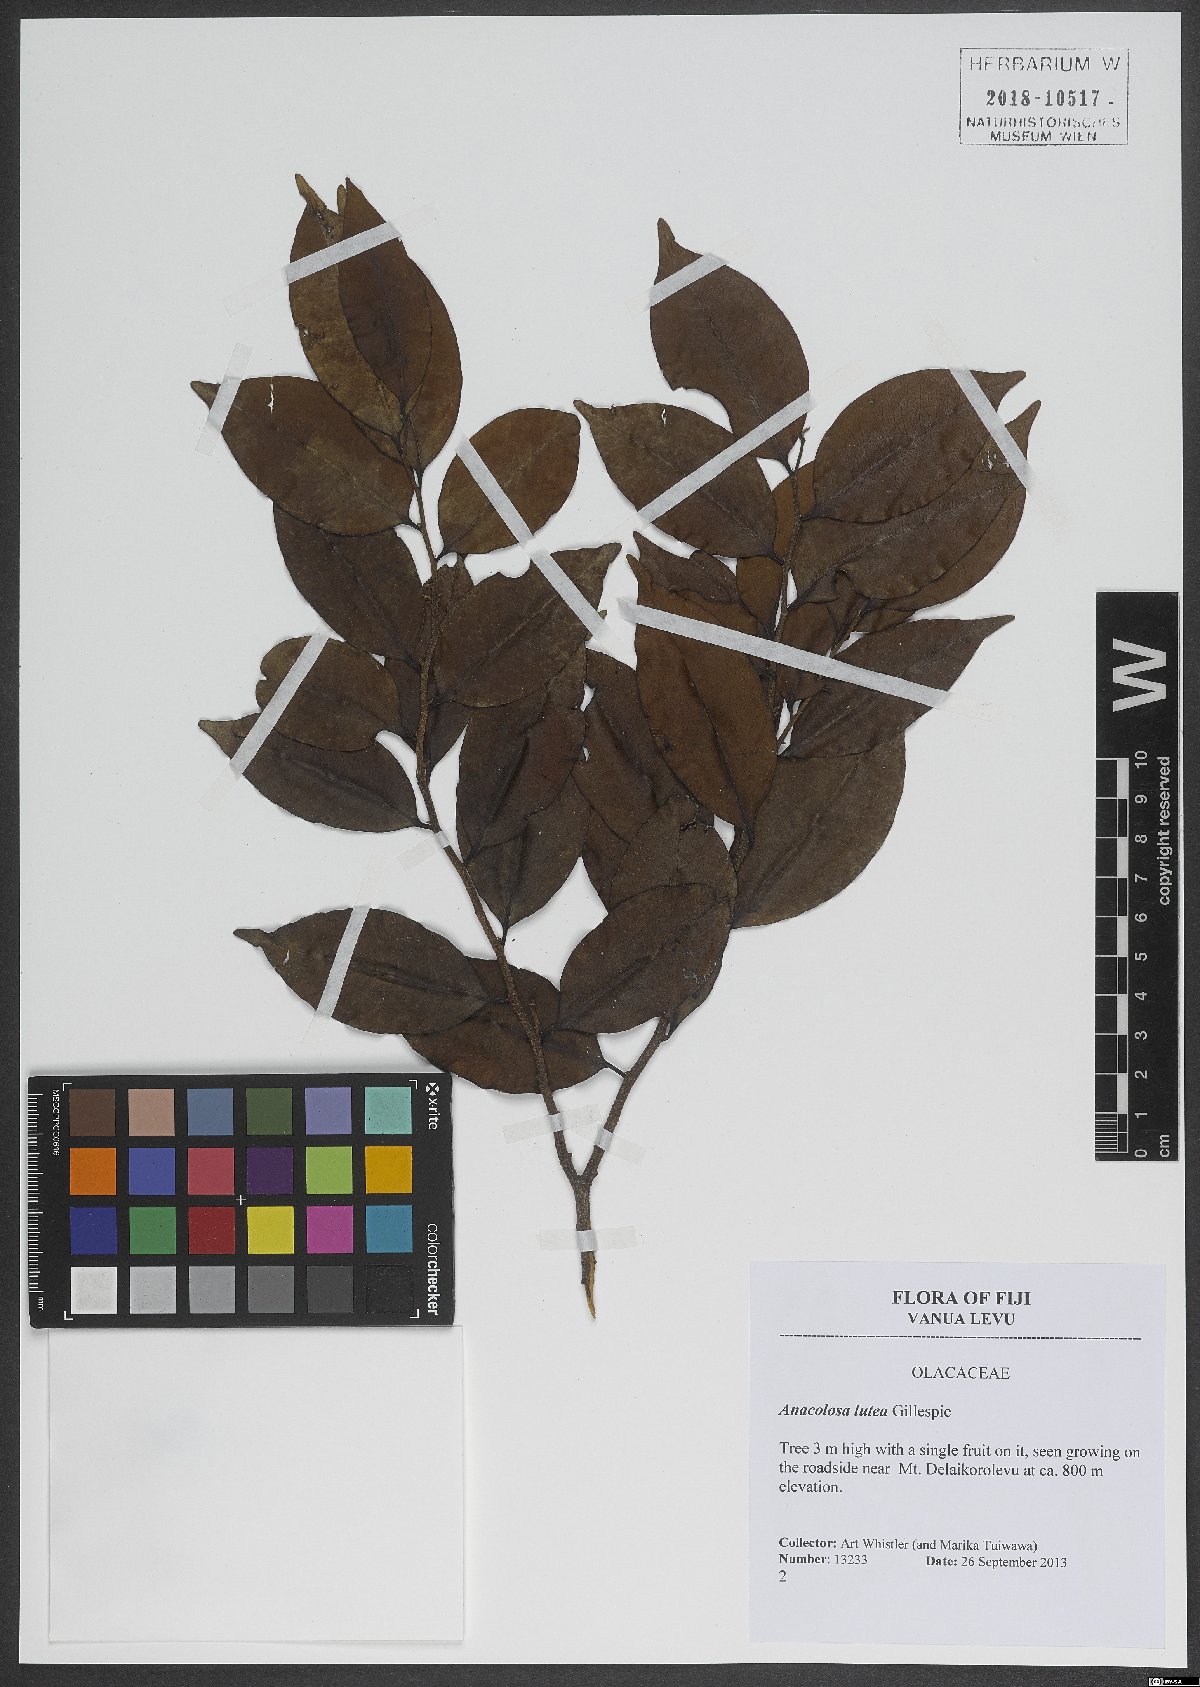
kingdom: Plantae
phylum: Tracheophyta
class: Magnoliopsida
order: Santalales
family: Aptandraceae
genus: Anacolosa
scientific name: Anacolosa lutea
